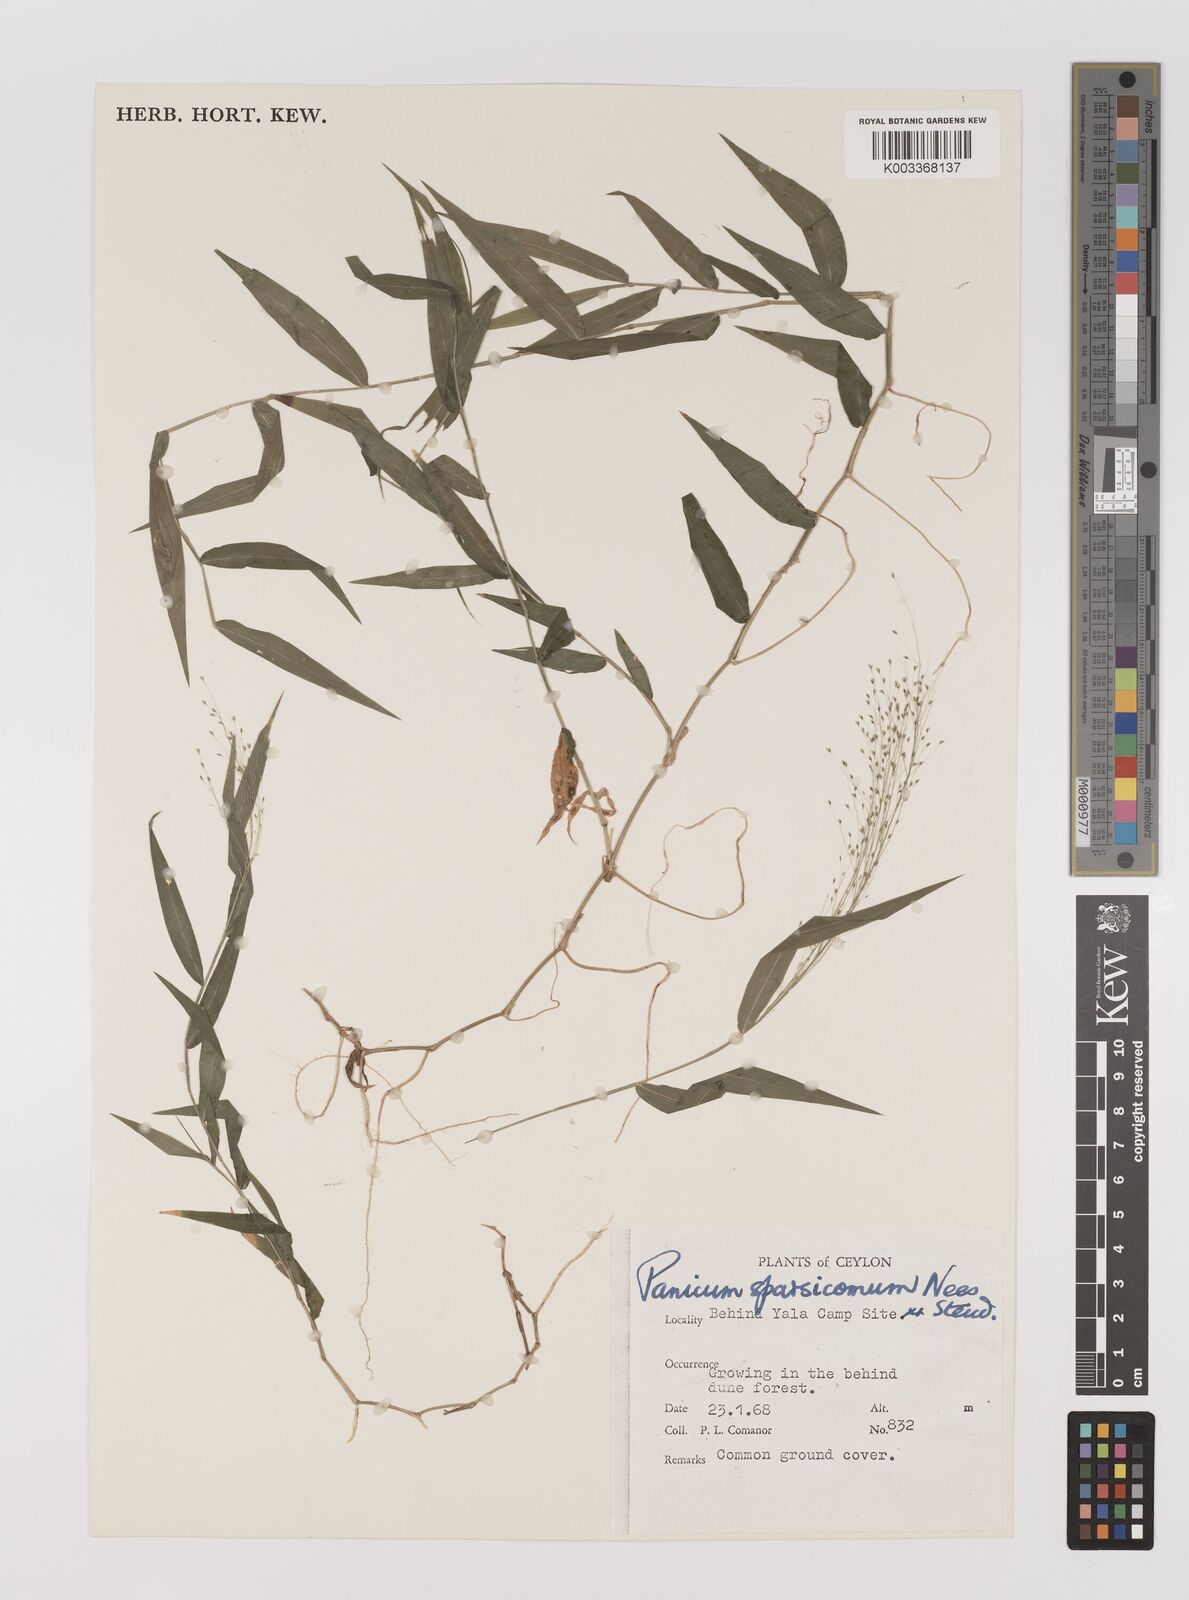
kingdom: Plantae
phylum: Tracheophyta
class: Liliopsida
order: Poales
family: Poaceae
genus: Panicum
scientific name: Panicum sparsicomum
